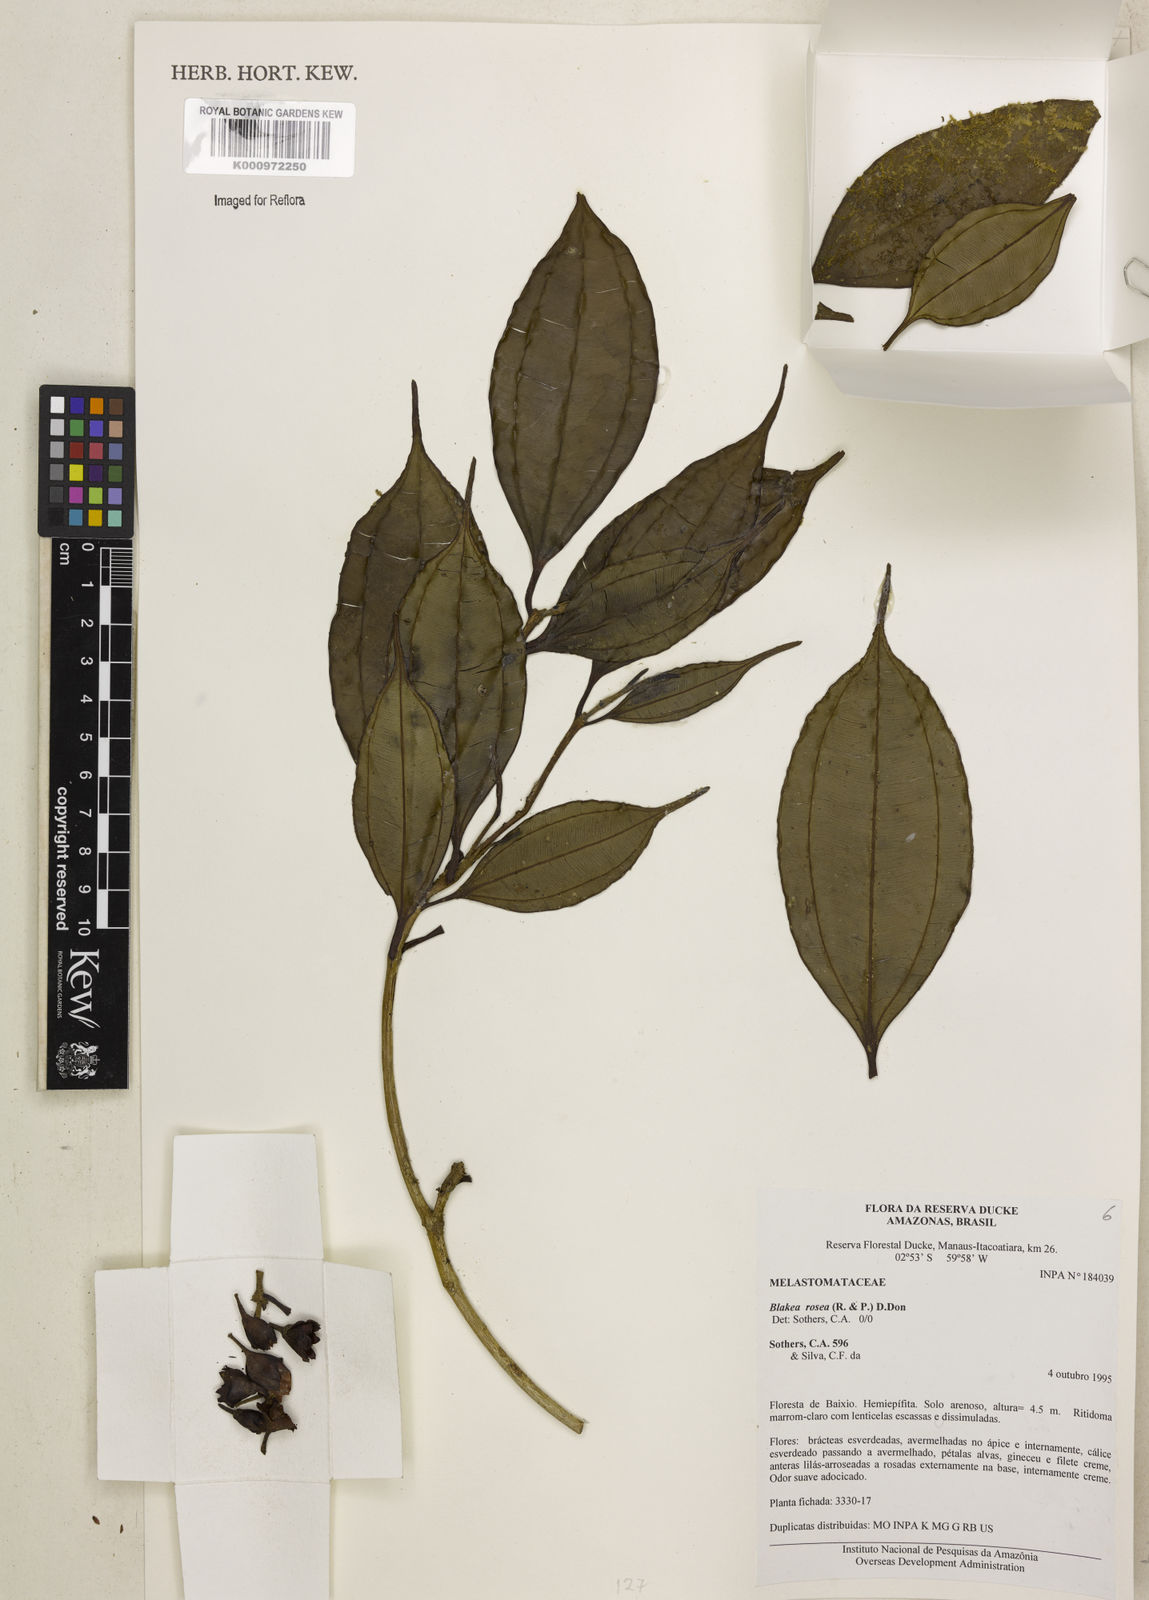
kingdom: Plantae
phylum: Tracheophyta
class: Magnoliopsida
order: Myrtales
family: Melastomataceae
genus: Blakea
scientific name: Blakea rosea
